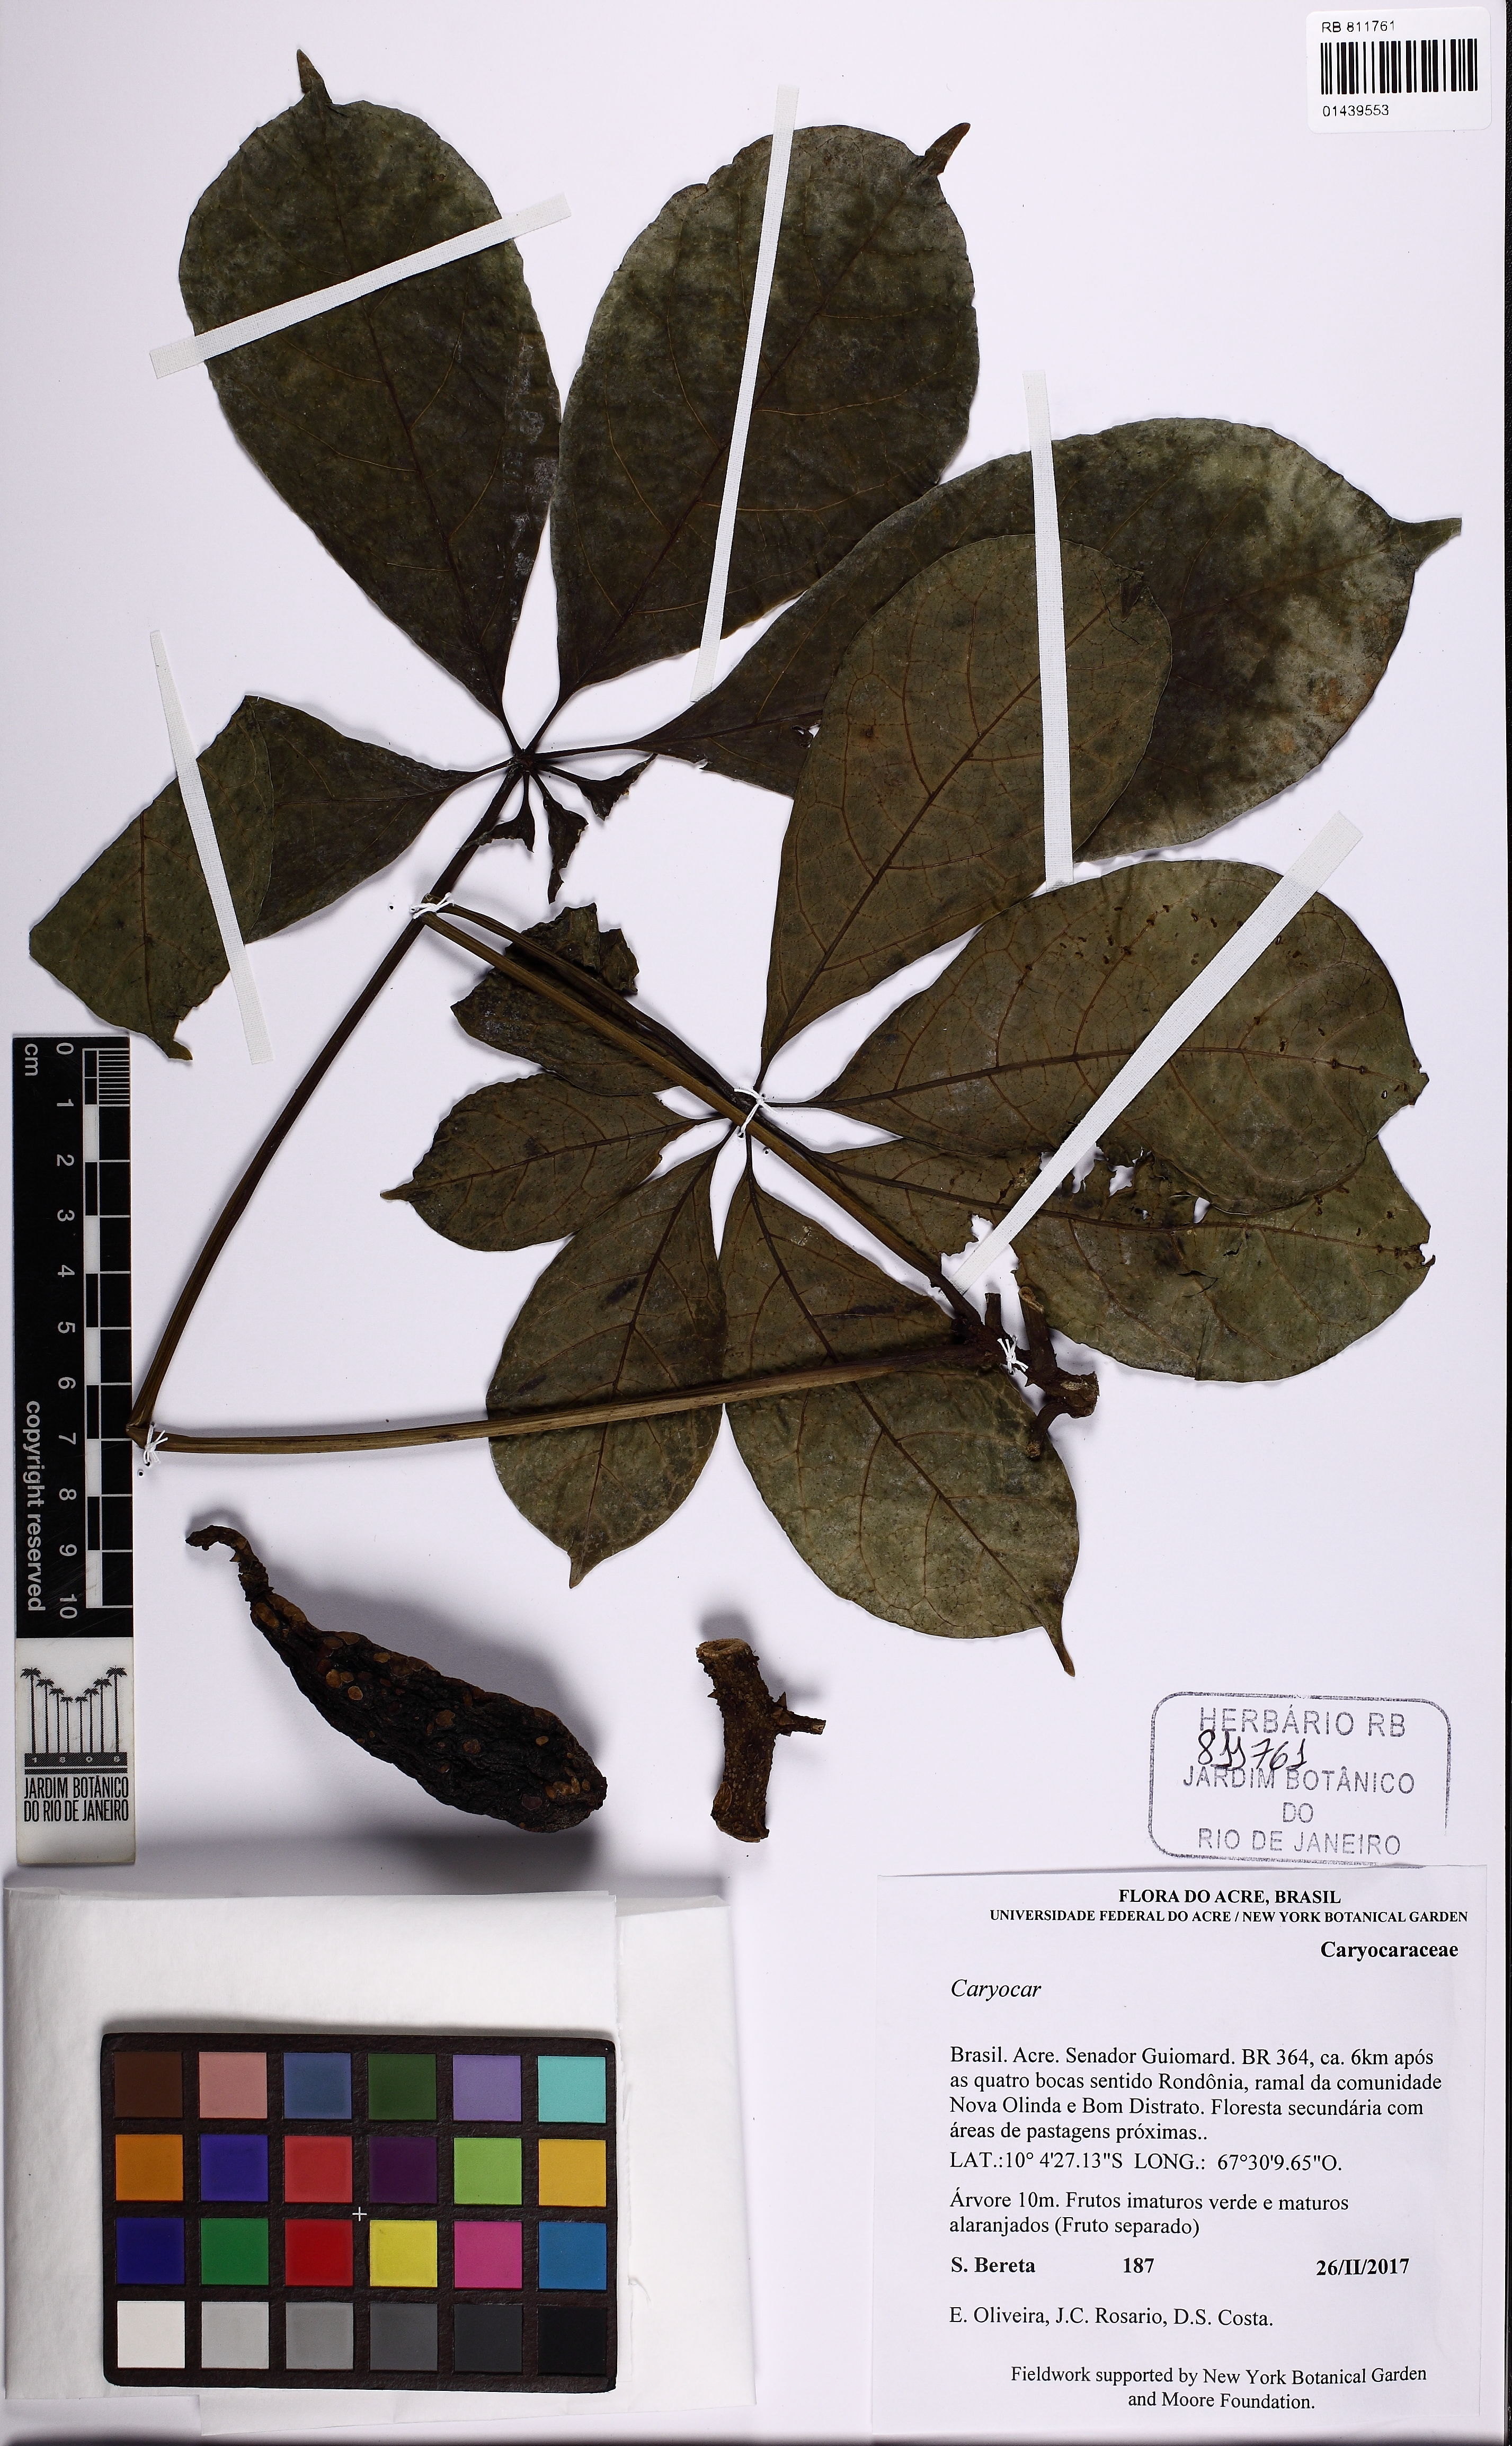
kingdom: Plantae
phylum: Tracheophyta
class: Magnoliopsida
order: Malpighiales
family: Caryocaraceae
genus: Caryocar
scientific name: Caryocar
